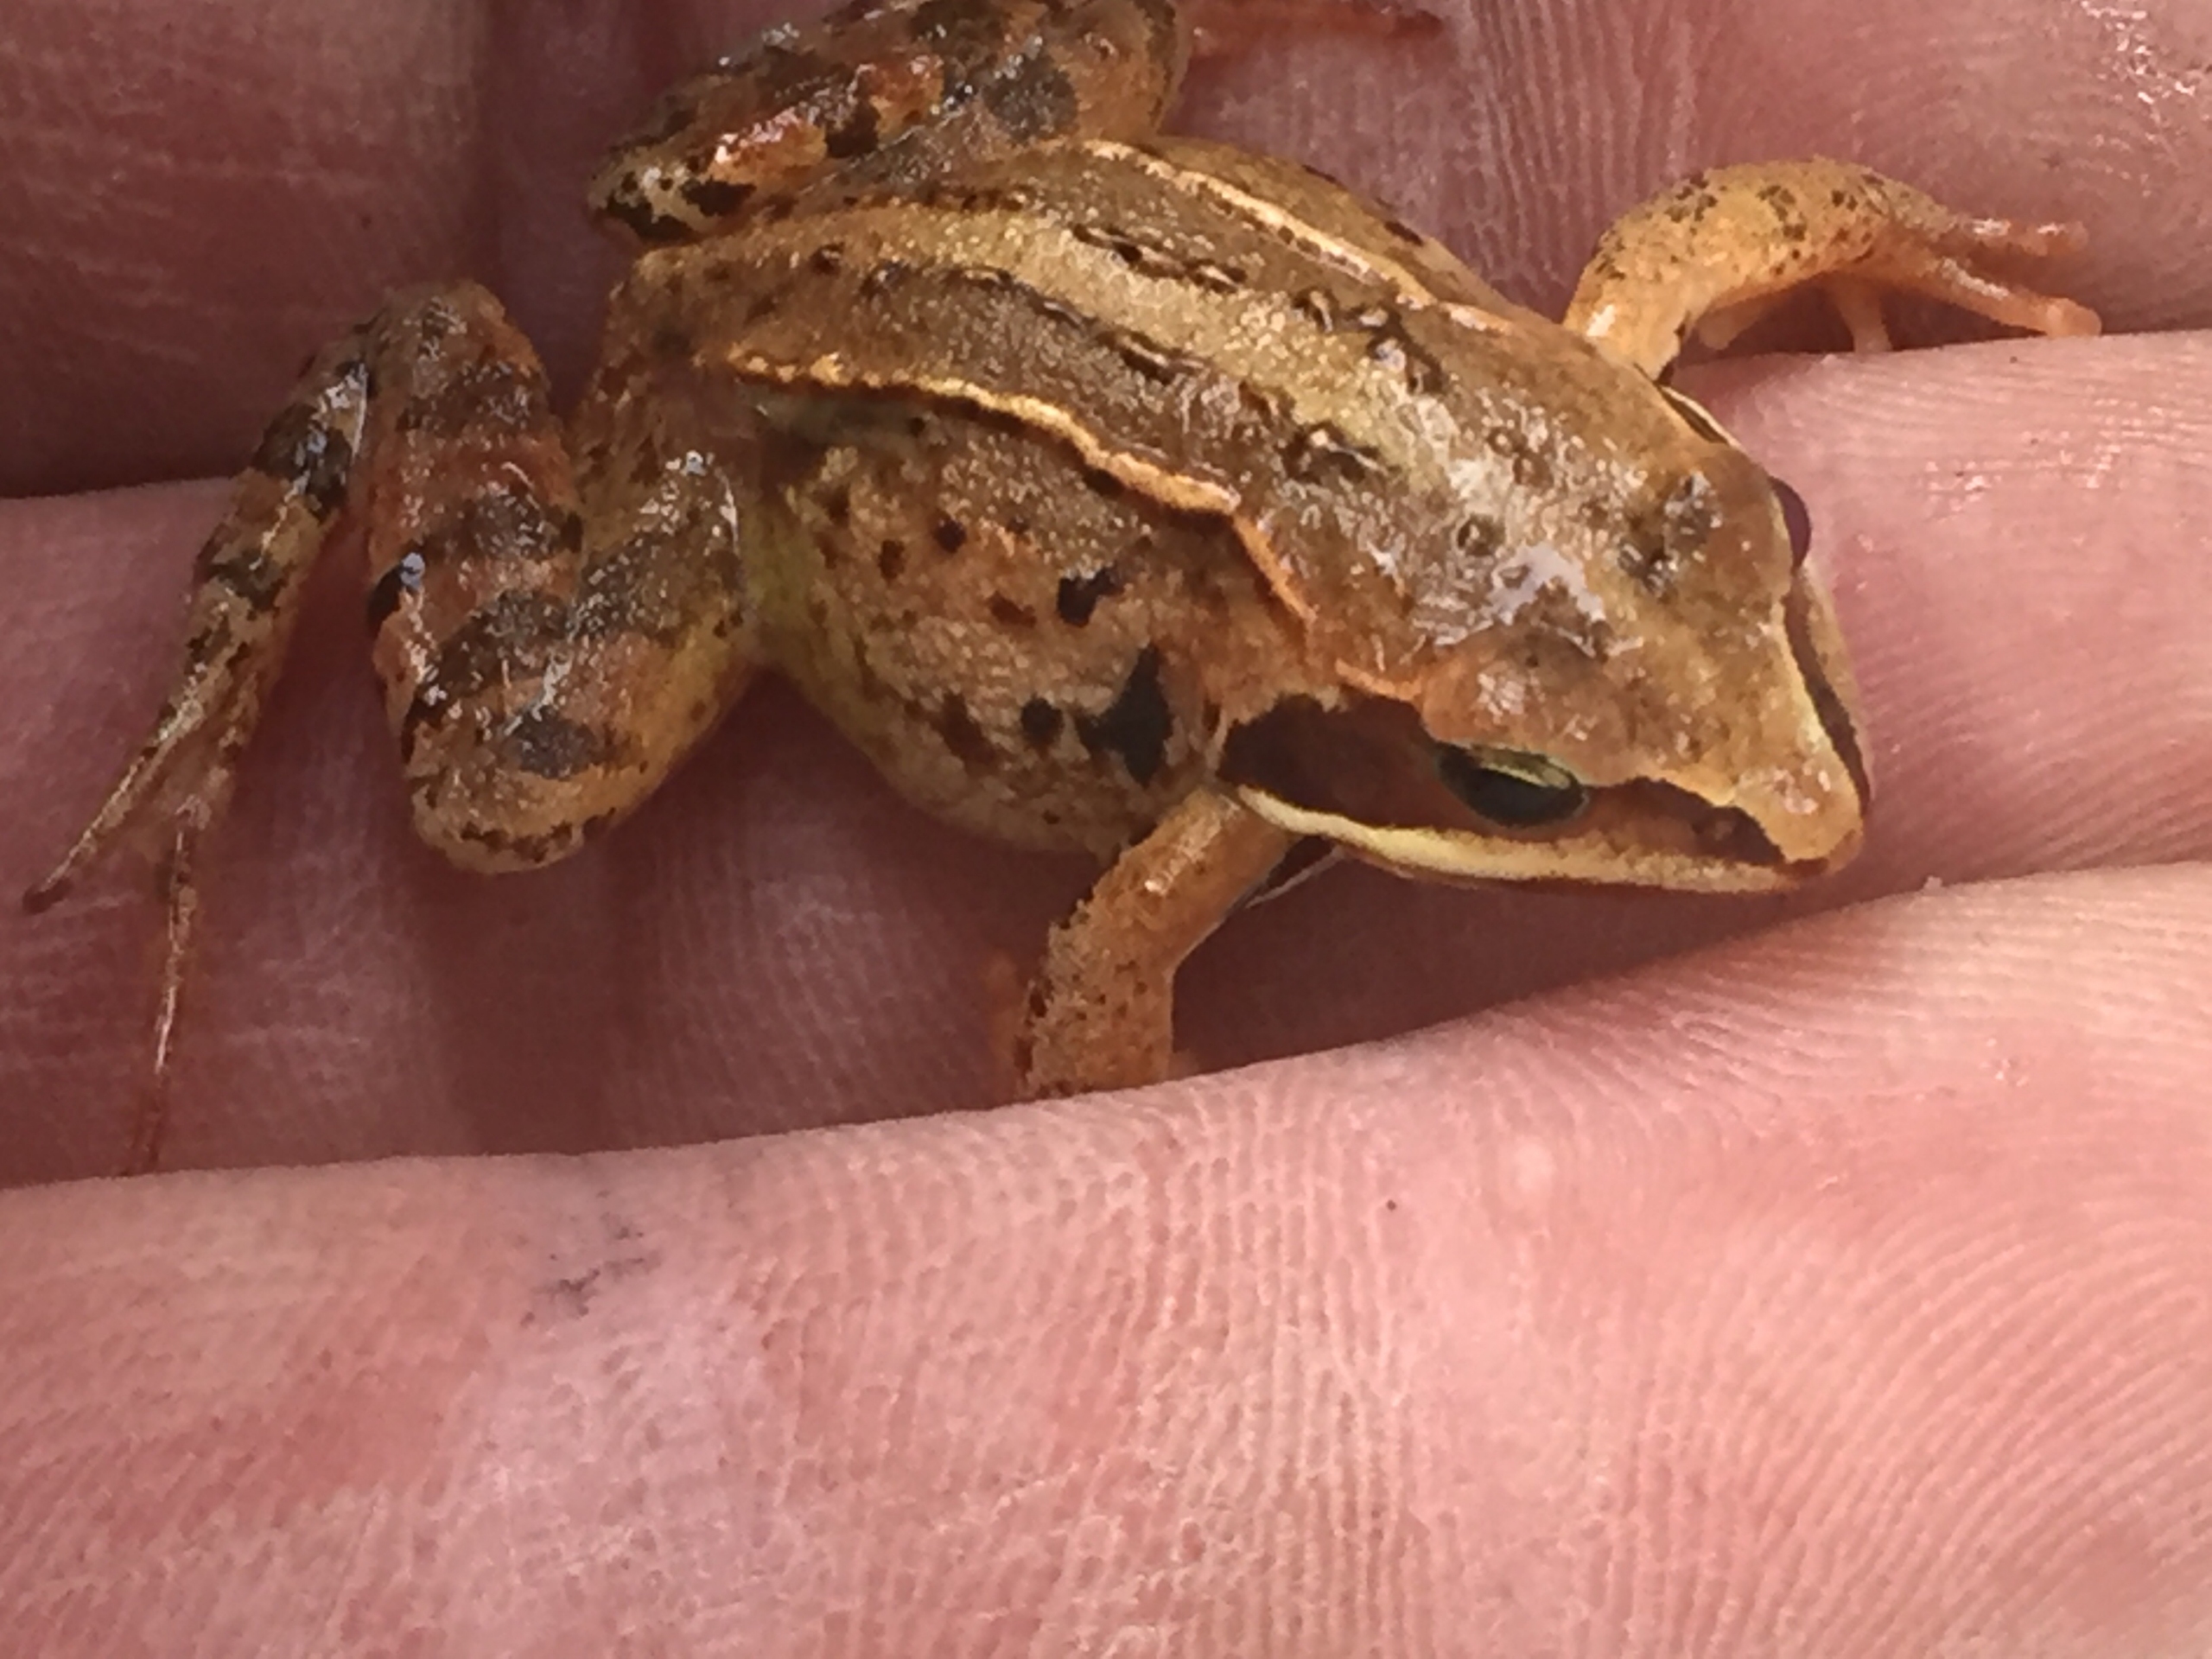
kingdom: Animalia
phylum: Chordata
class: Amphibia
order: Anura
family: Ranidae
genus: Rana
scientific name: Rana arvalis
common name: Spidssnudet frø
